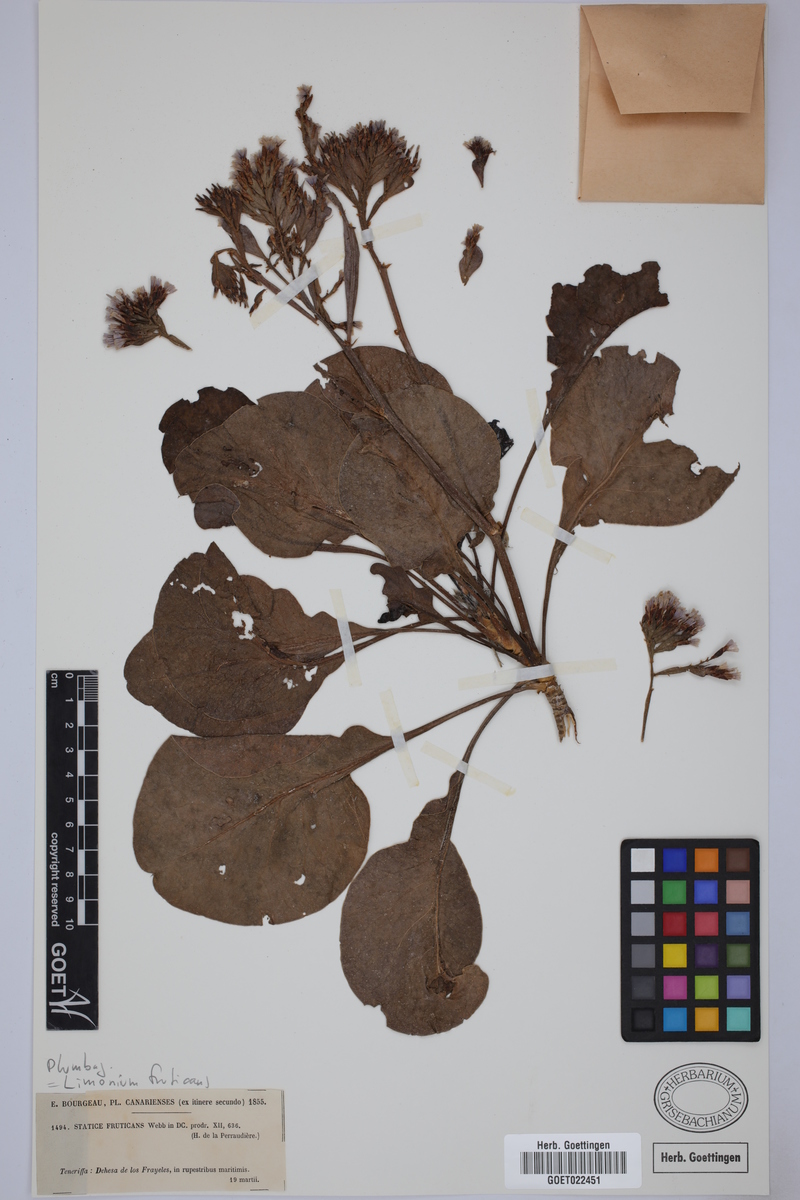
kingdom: Plantae
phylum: Tracheophyta
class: Magnoliopsida
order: Caryophyllales
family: Plumbaginaceae
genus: Limonium
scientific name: Limonium frutescens
